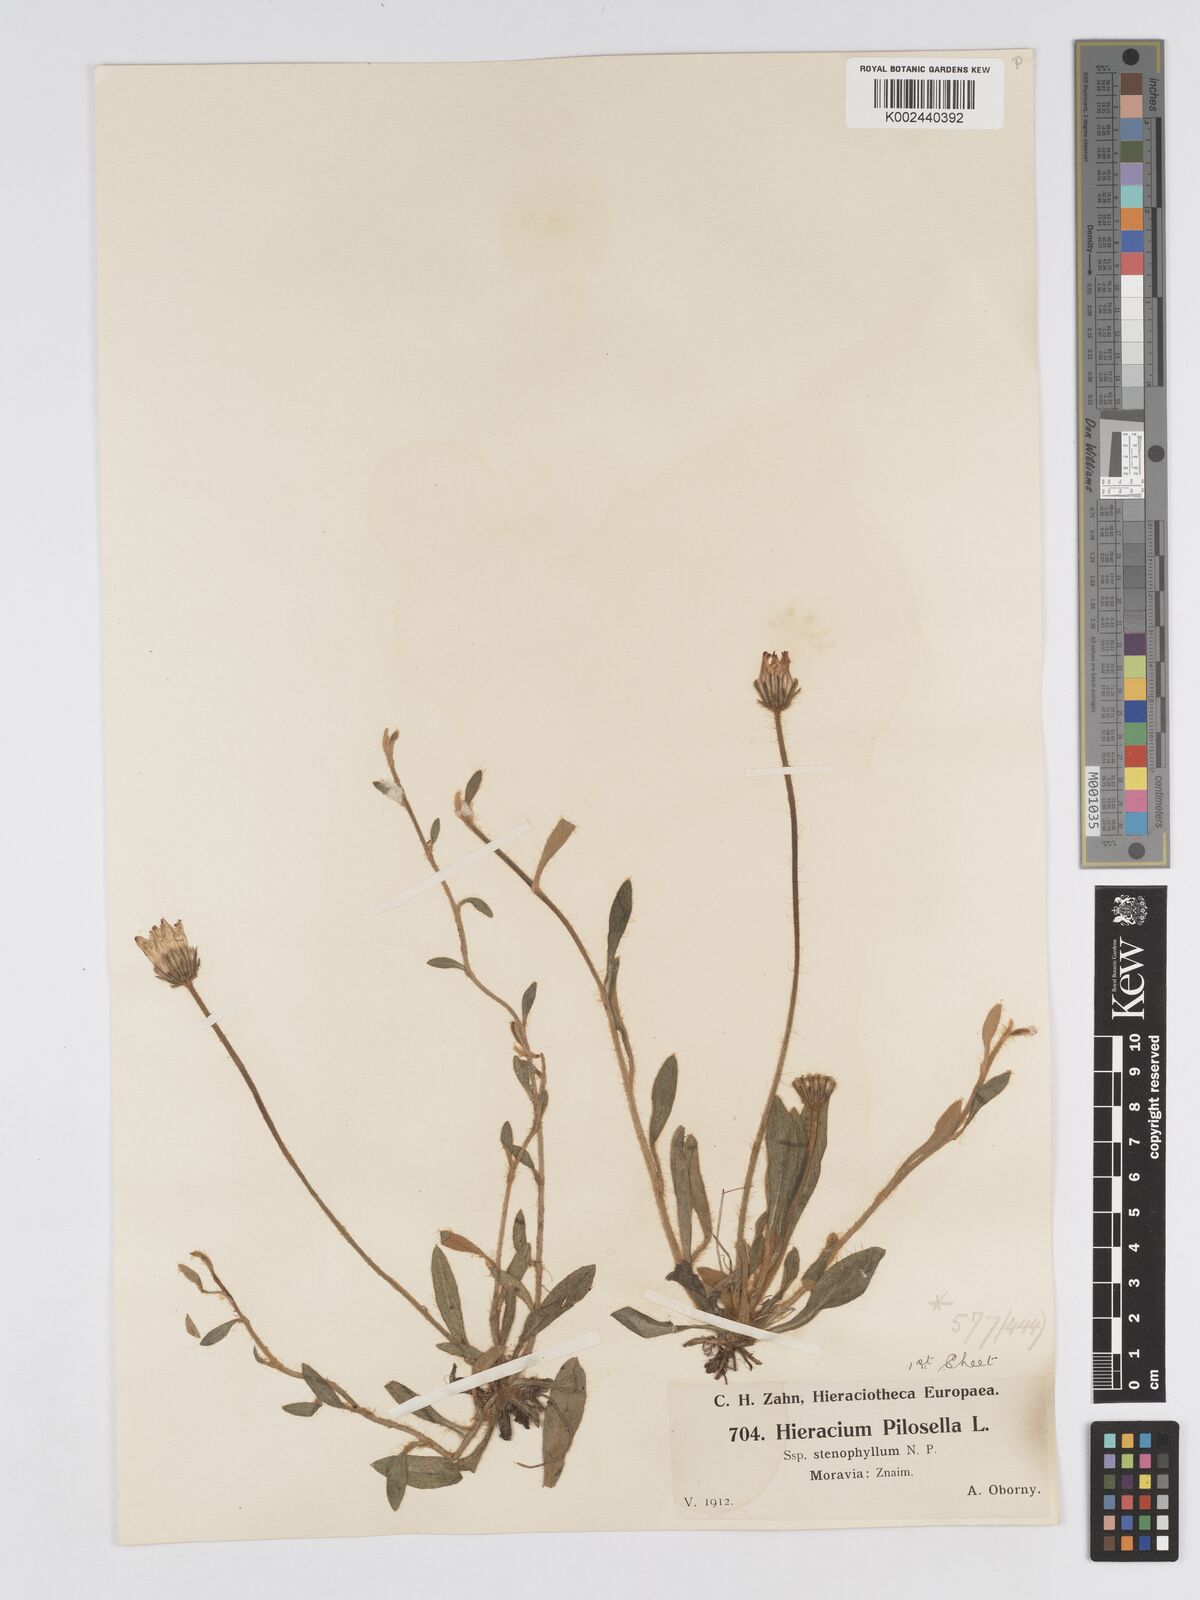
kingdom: Plantae
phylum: Tracheophyta
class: Magnoliopsida
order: Asterales
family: Asteraceae
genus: Pilosella
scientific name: Pilosella officinarum
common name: Mouse-ear hawkweed
